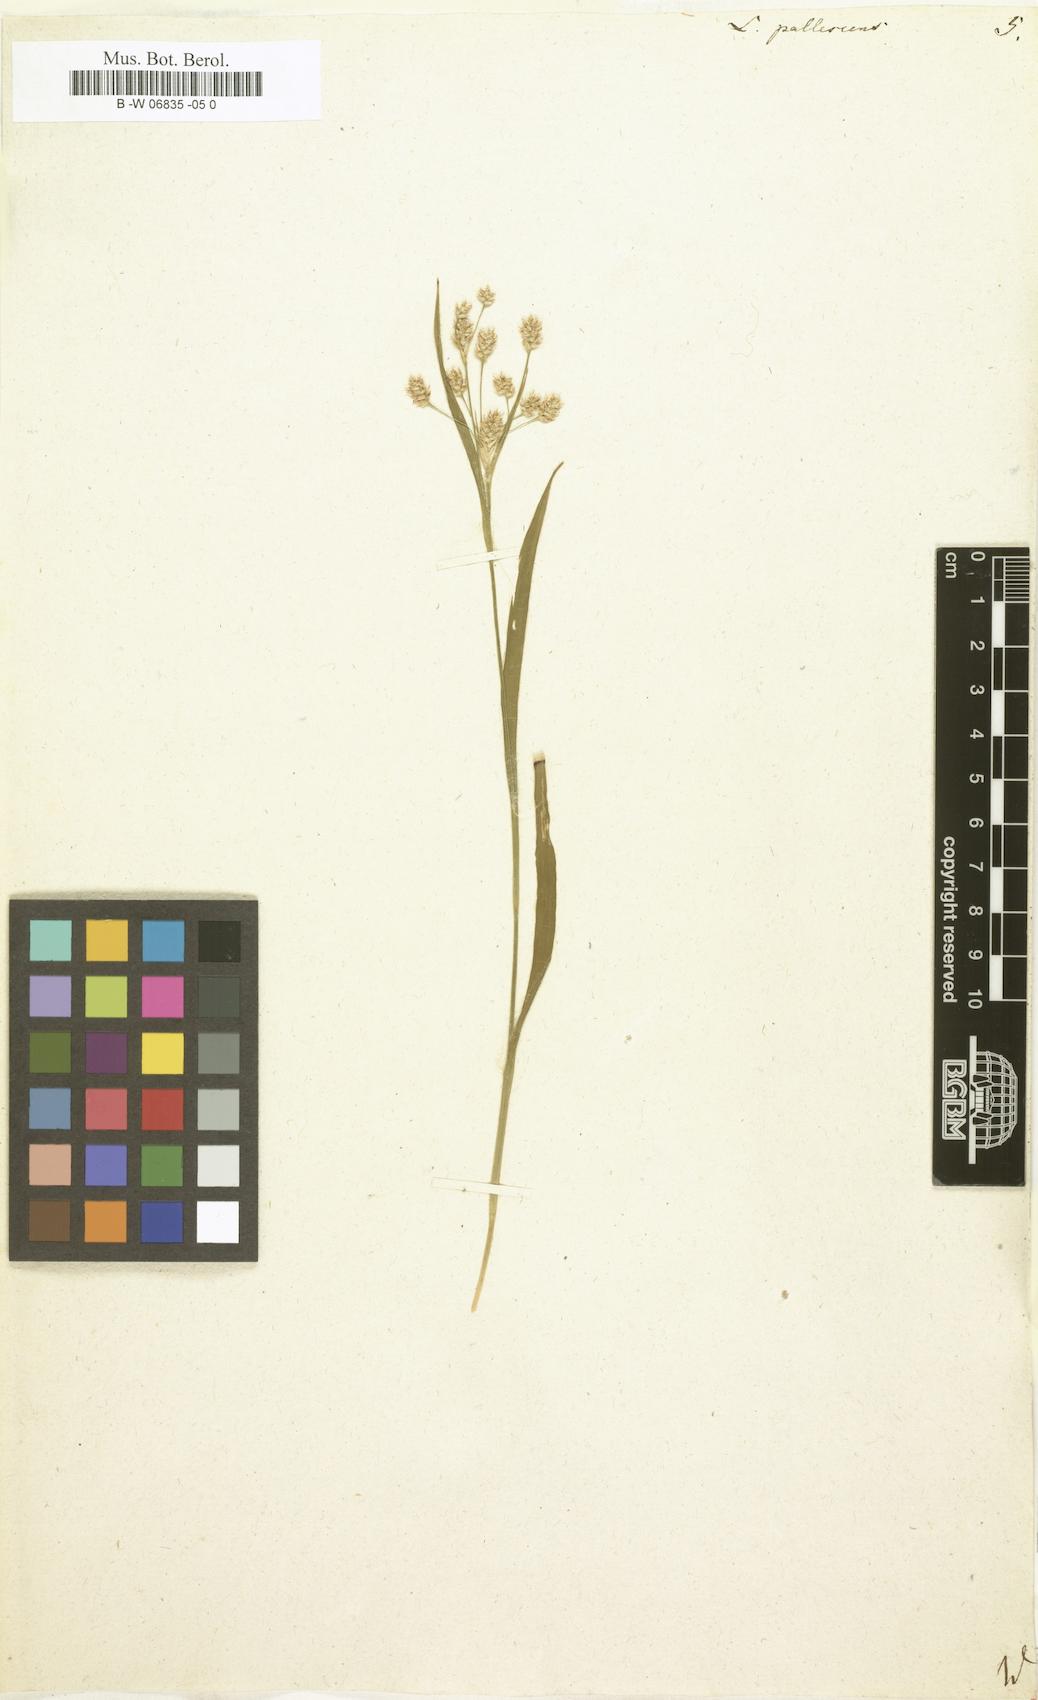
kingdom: Plantae
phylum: Tracheophyta
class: Liliopsida
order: Poales
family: Juncaceae
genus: Luzula
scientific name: Luzula pallescens
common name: Fen wood-rush
